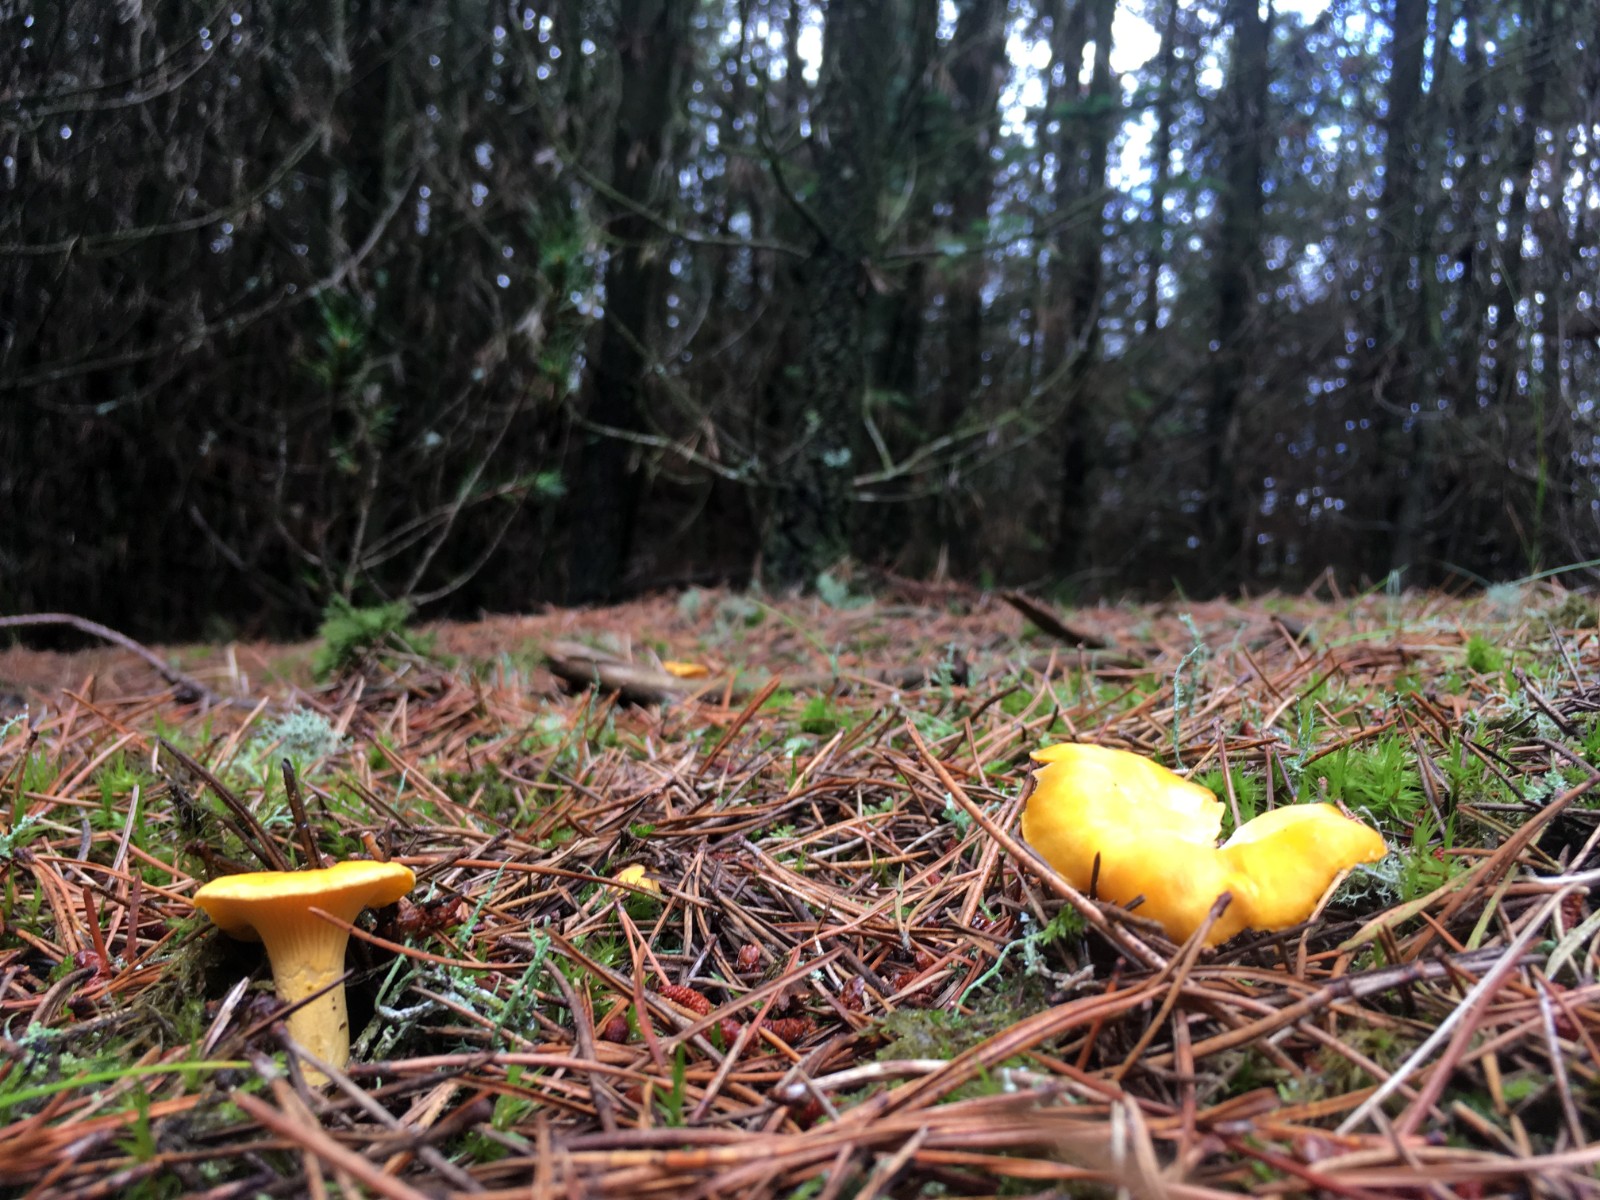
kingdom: Fungi
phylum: Basidiomycota
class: Agaricomycetes
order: Cantharellales
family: Hydnaceae
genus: Cantharellus
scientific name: Cantharellus cibarius
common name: almindelig kantarel
